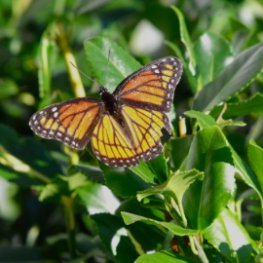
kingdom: Animalia
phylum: Arthropoda
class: Insecta
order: Lepidoptera
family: Nymphalidae
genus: Limenitis
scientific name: Limenitis archippus
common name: Viceroy
